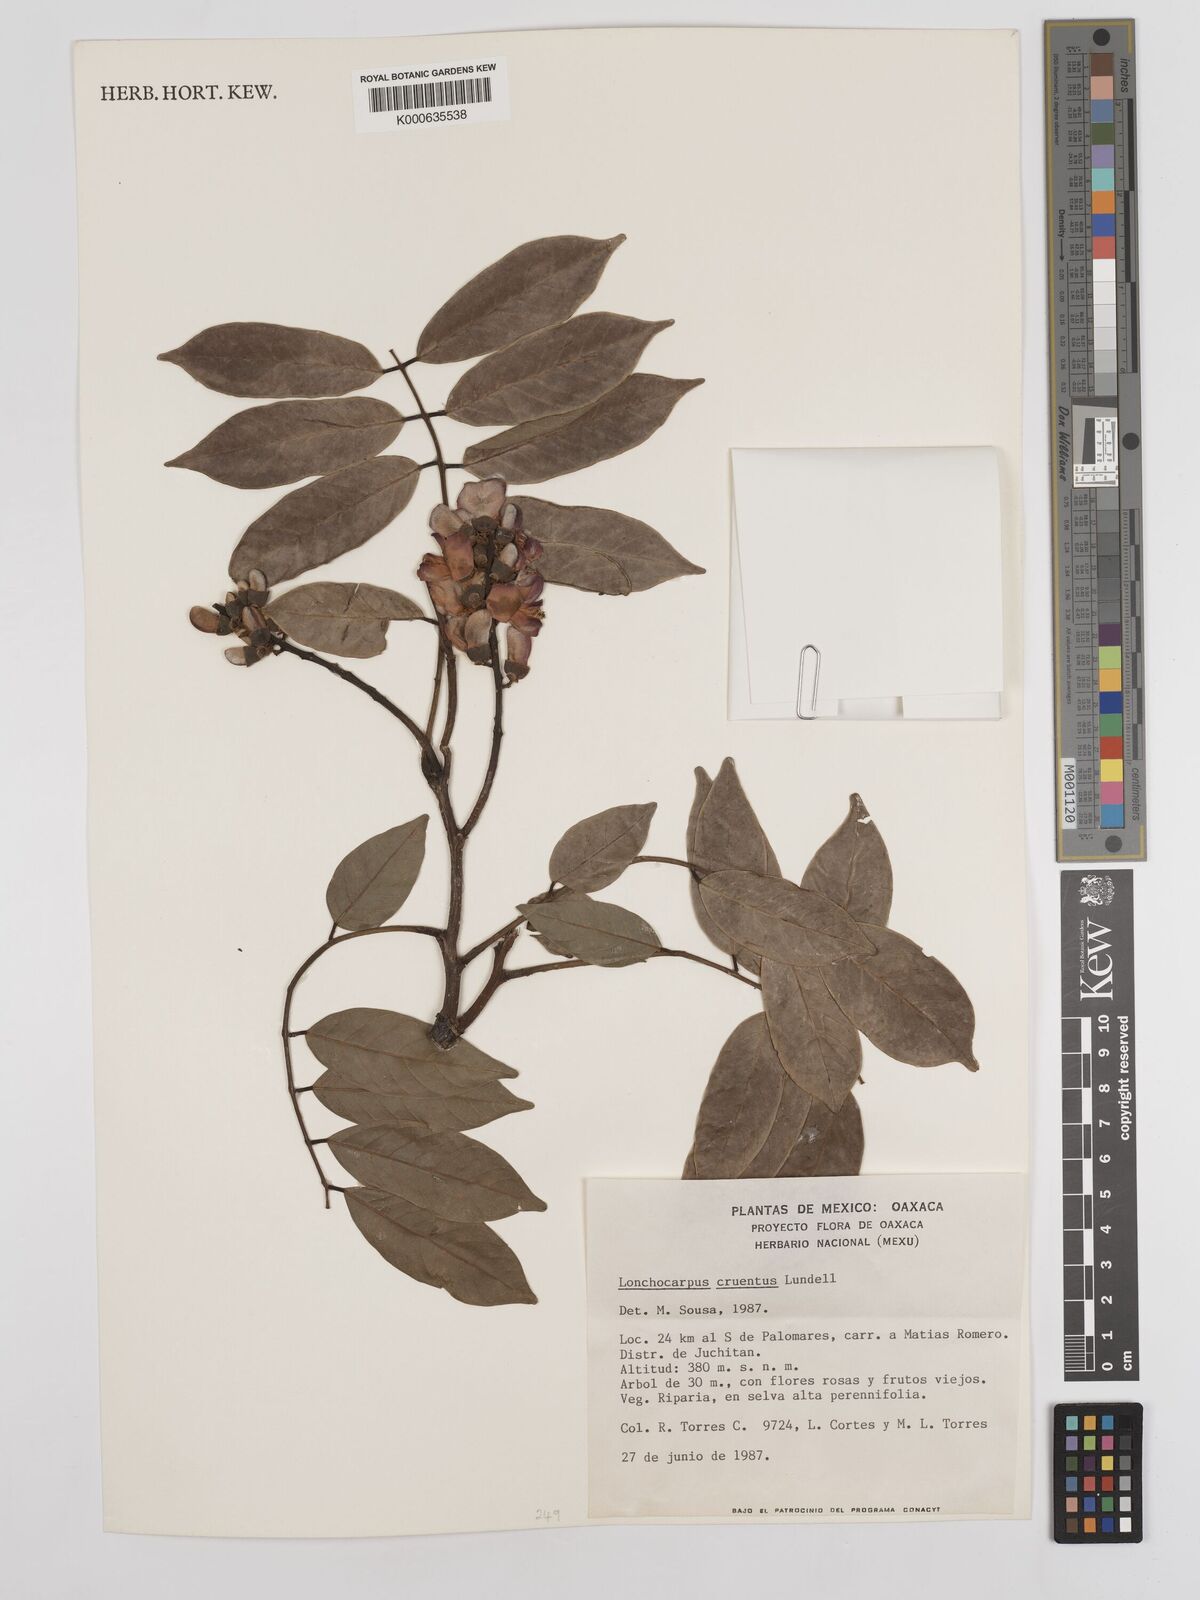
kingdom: Plantae
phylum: Tracheophyta
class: Magnoliopsida
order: Fabales
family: Fabaceae
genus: Lonchocarpus
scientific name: Lonchocarpus cruentus
